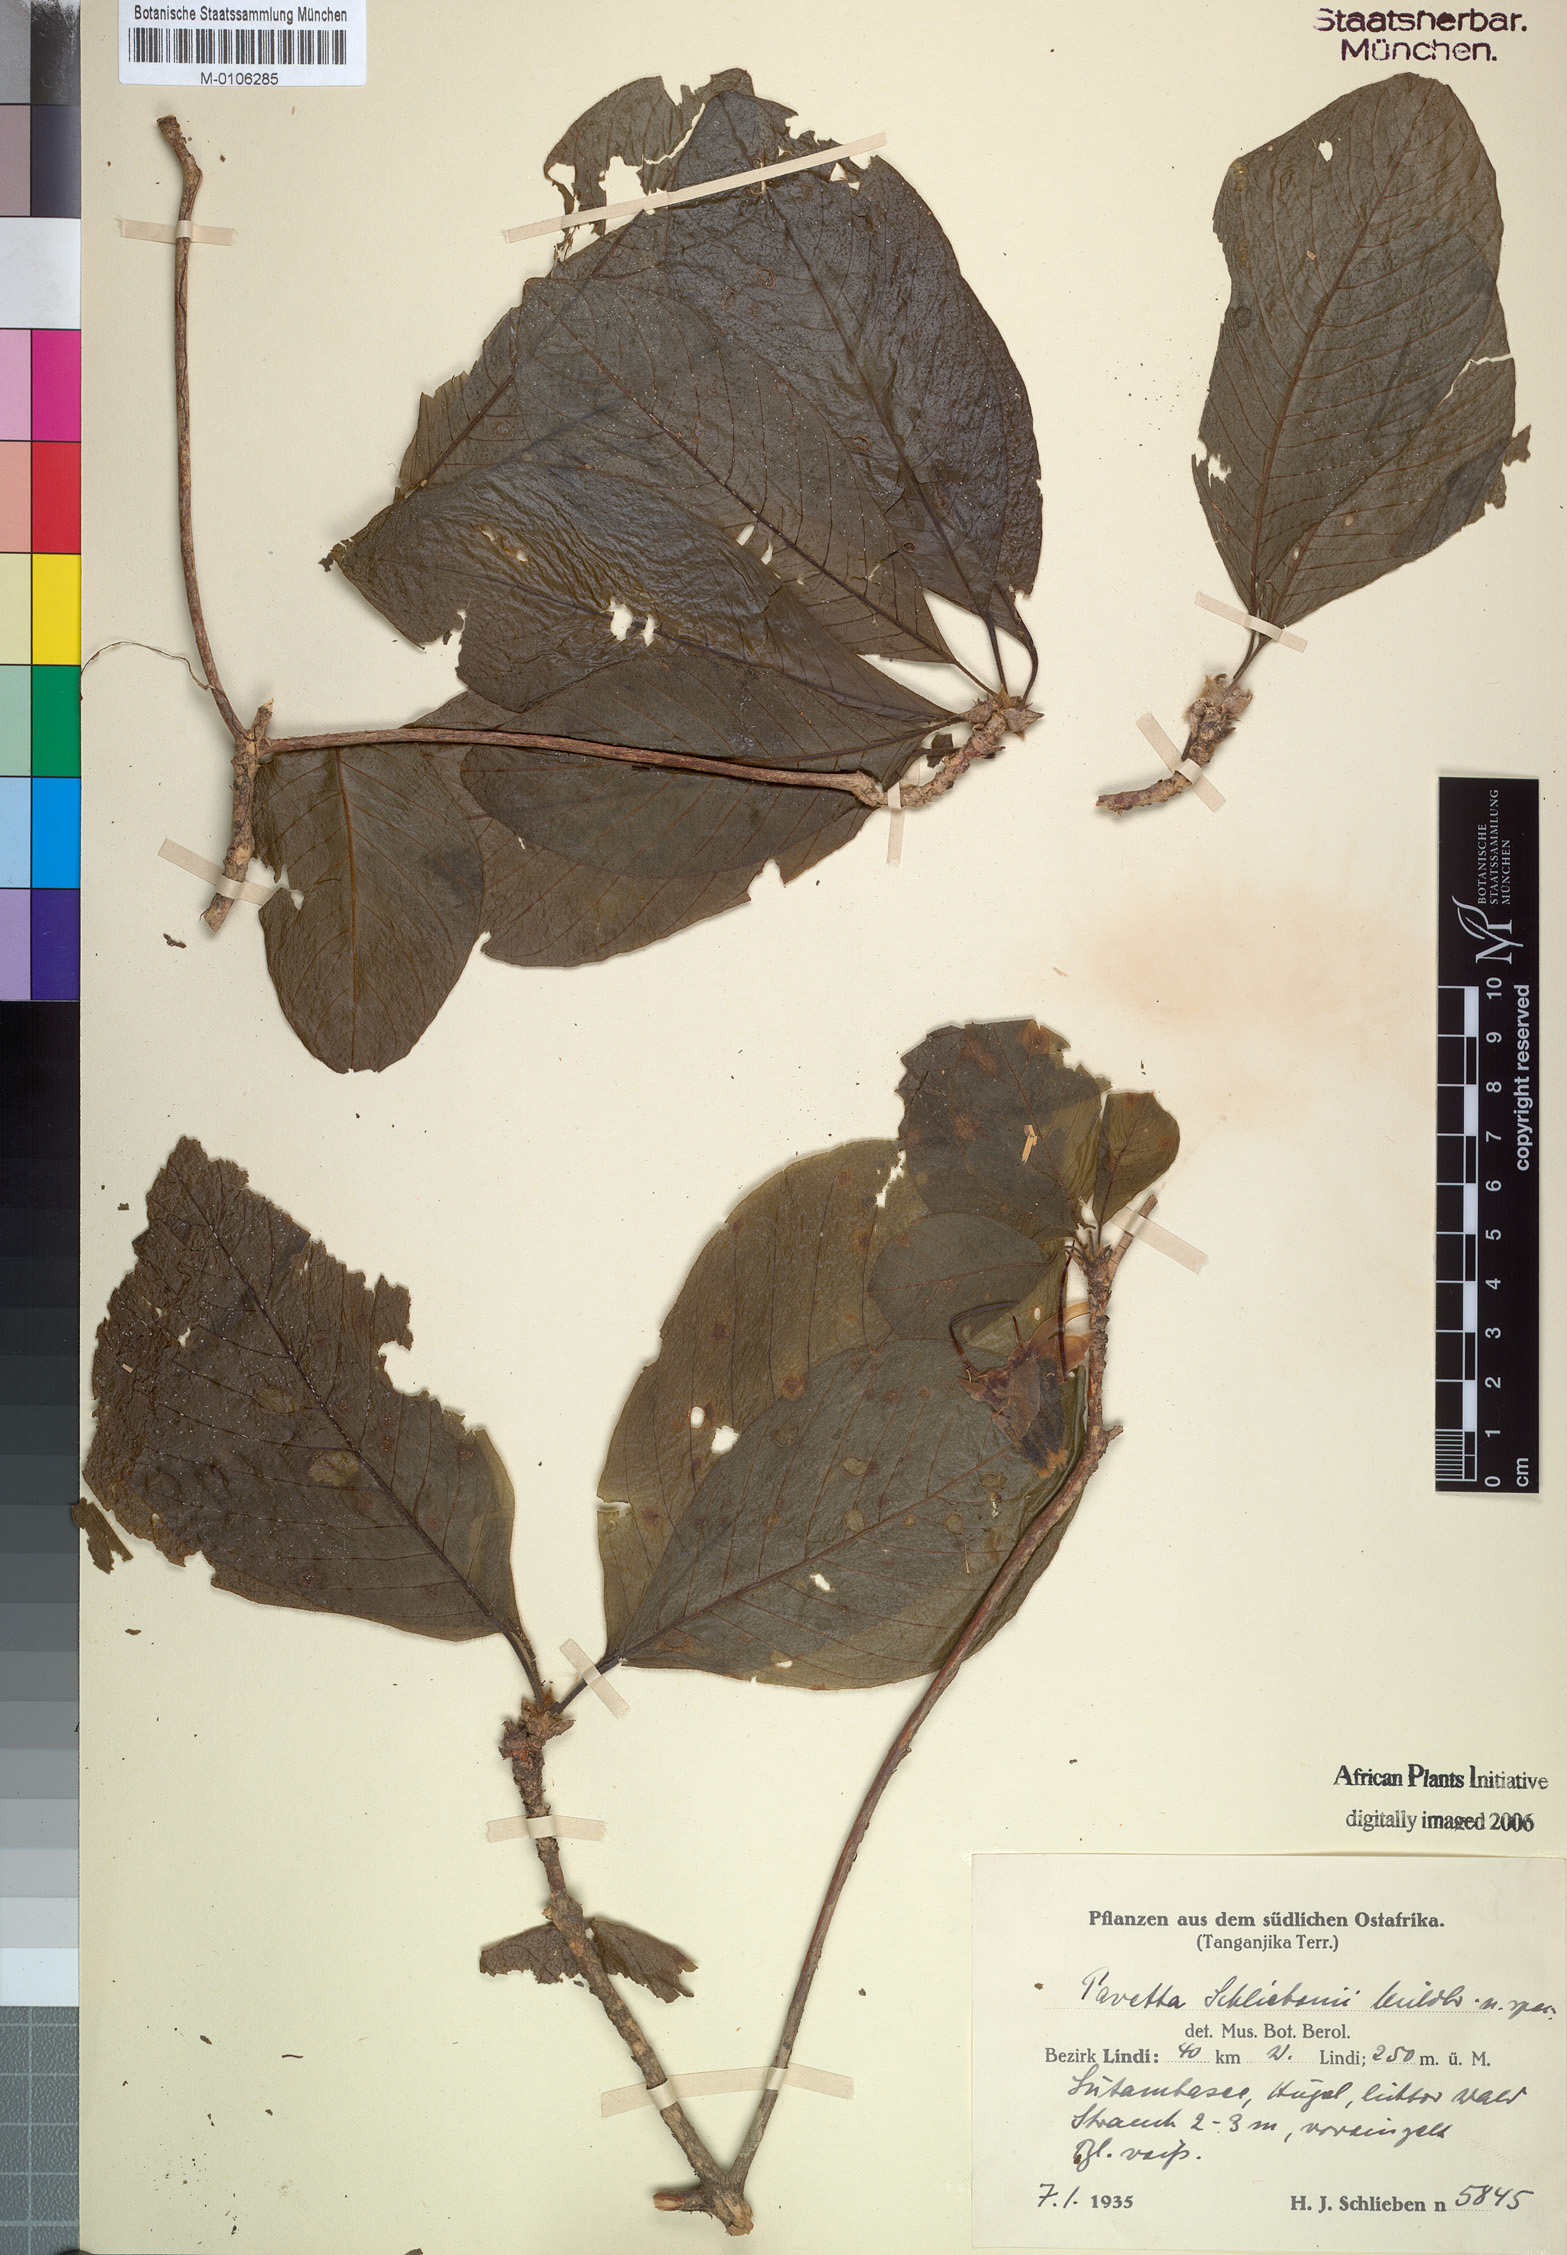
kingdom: Plantae
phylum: Tracheophyta
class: Magnoliopsida
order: Gentianales
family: Rubiaceae
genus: Pavetta
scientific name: Pavetta schliebenii
